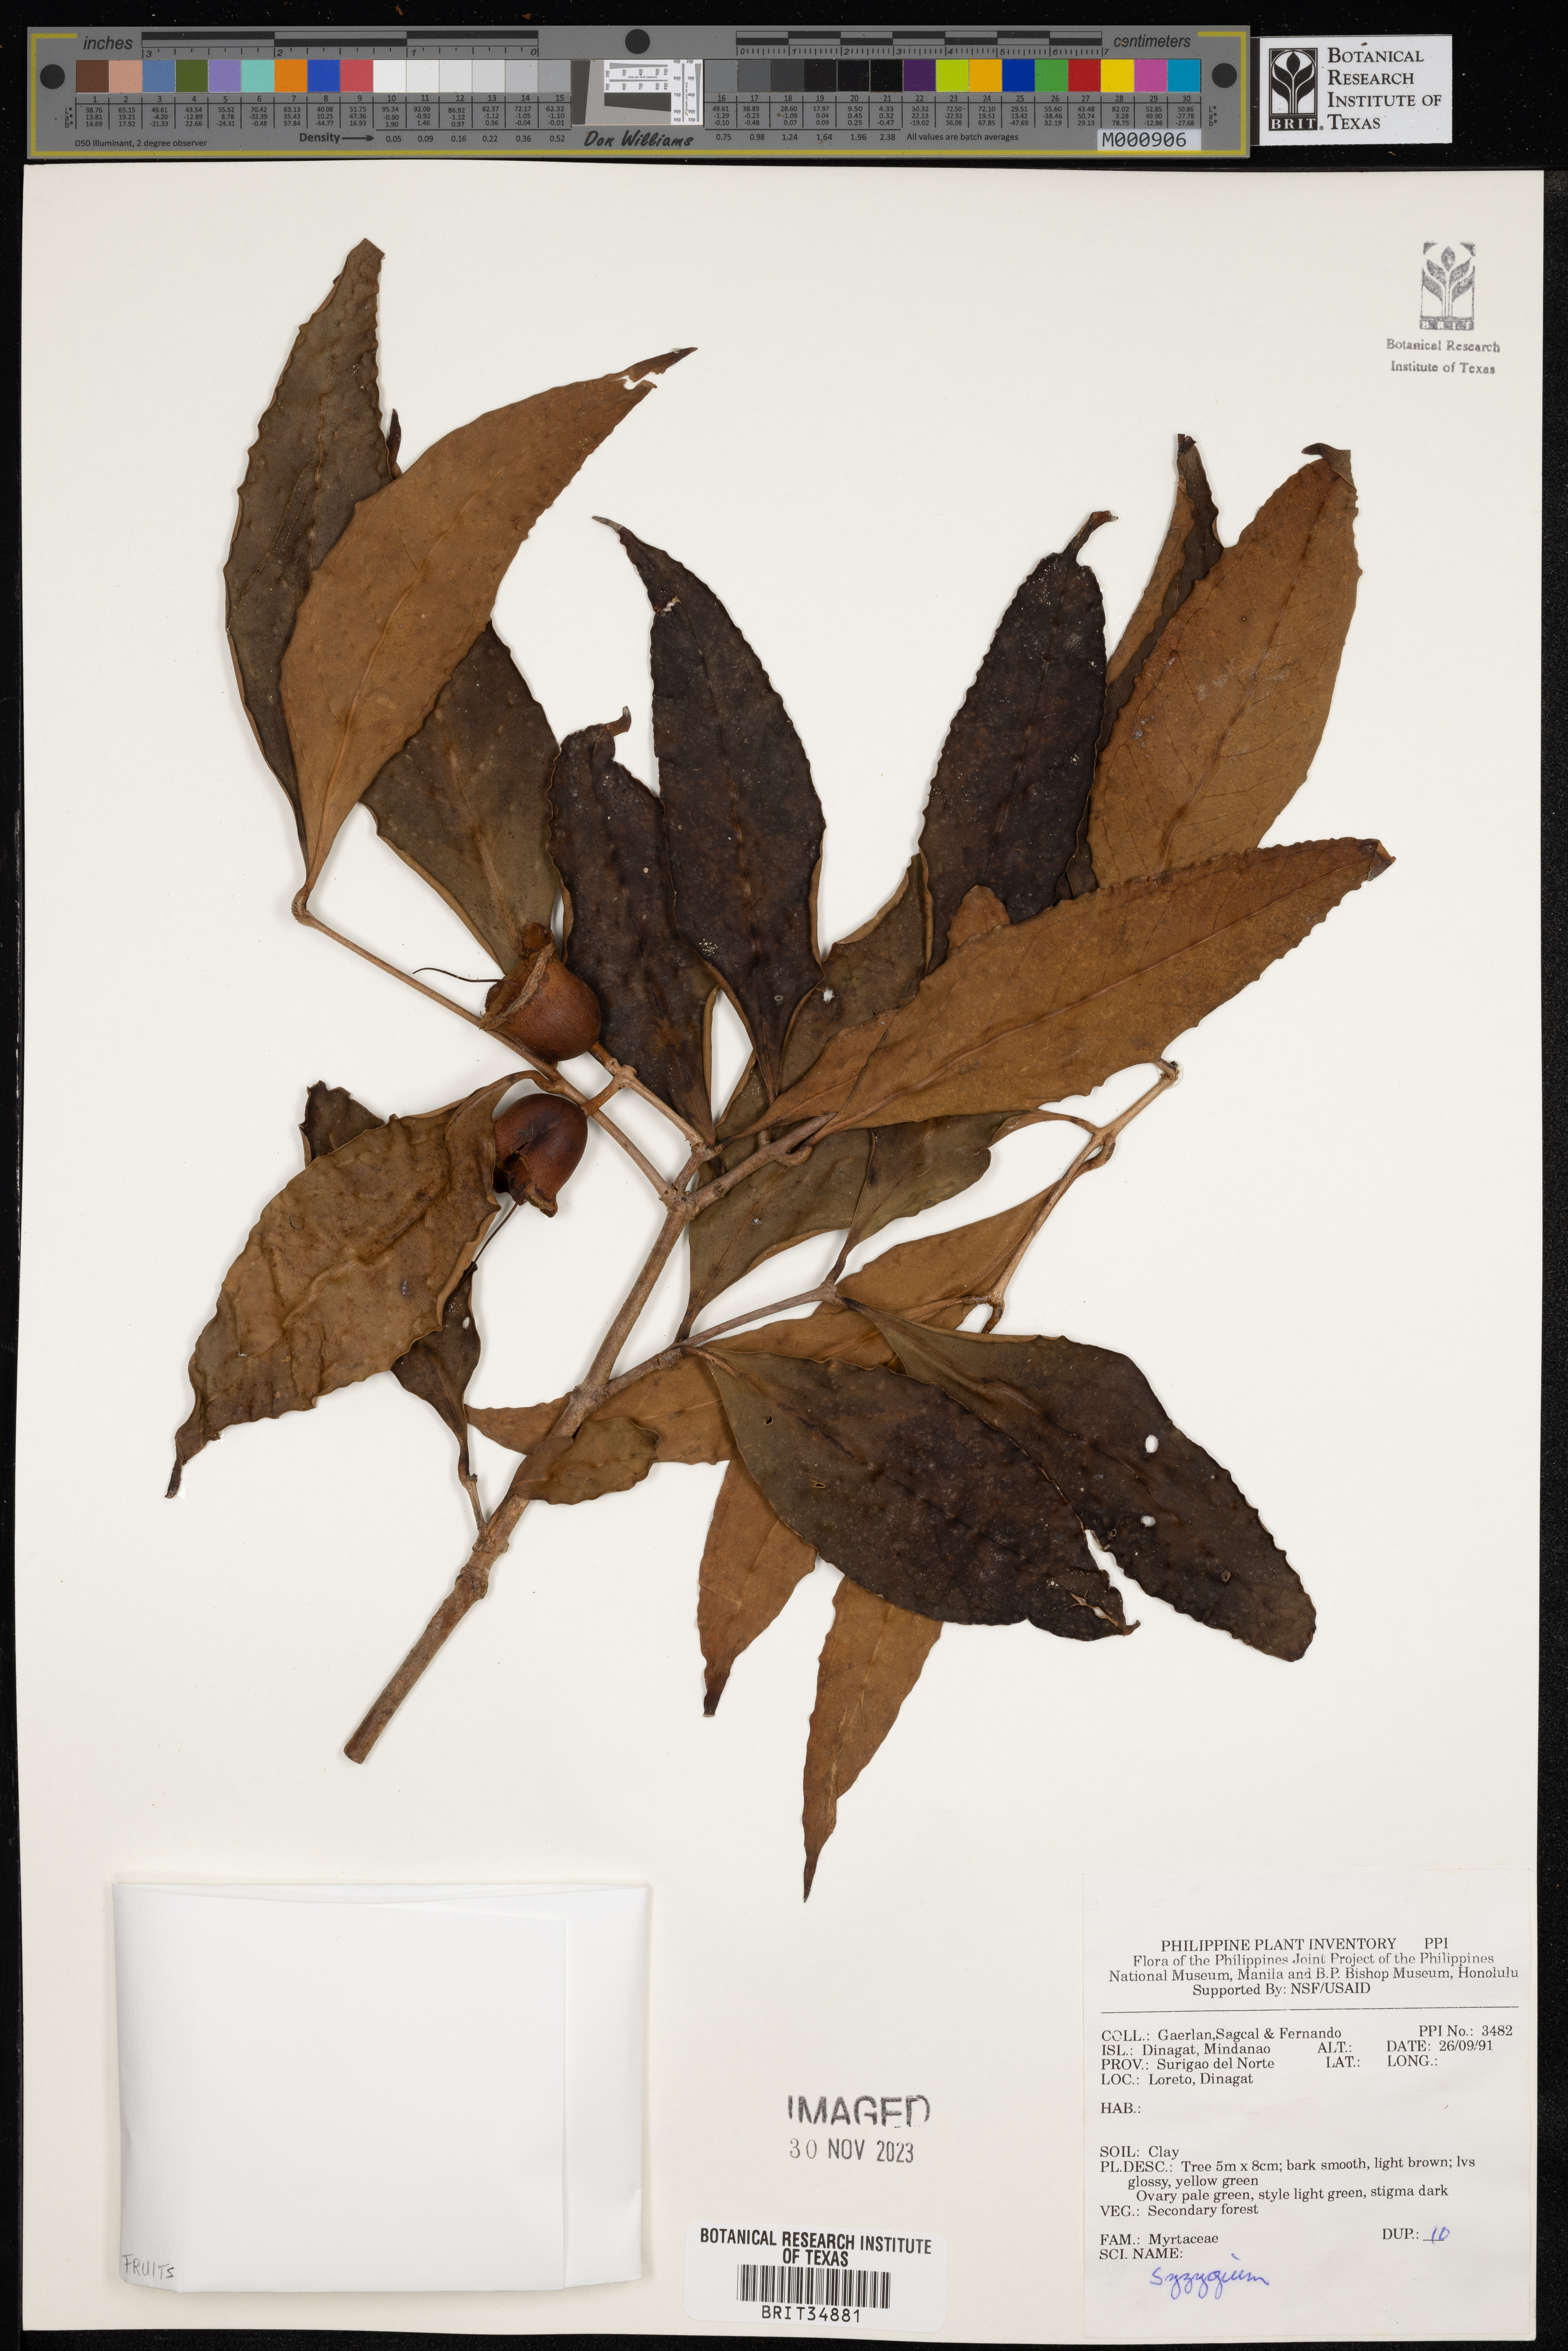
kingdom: Plantae
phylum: Tracheophyta
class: Magnoliopsida
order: Myrtales
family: Myrtaceae
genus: Syzygium
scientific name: Syzygium
